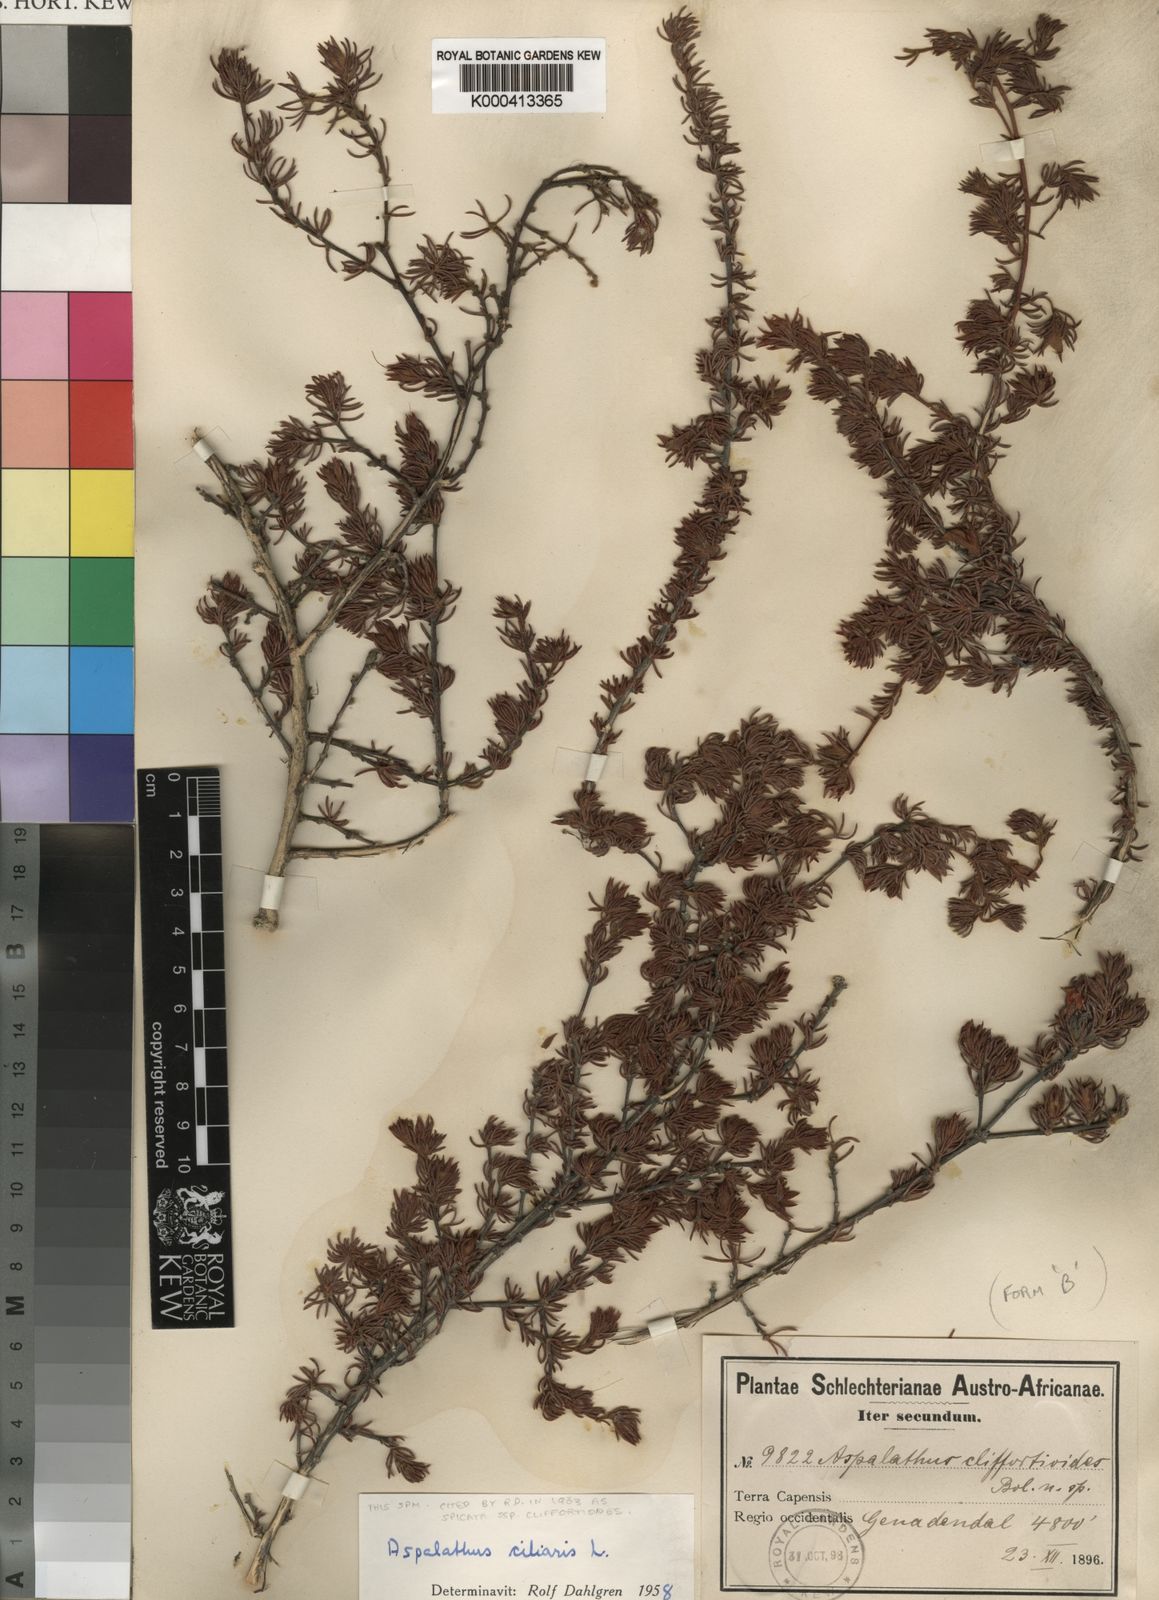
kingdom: Plantae
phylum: Tracheophyta
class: Magnoliopsida
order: Fabales
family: Fabaceae
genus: Aspalathus
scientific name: Aspalathus spicata
